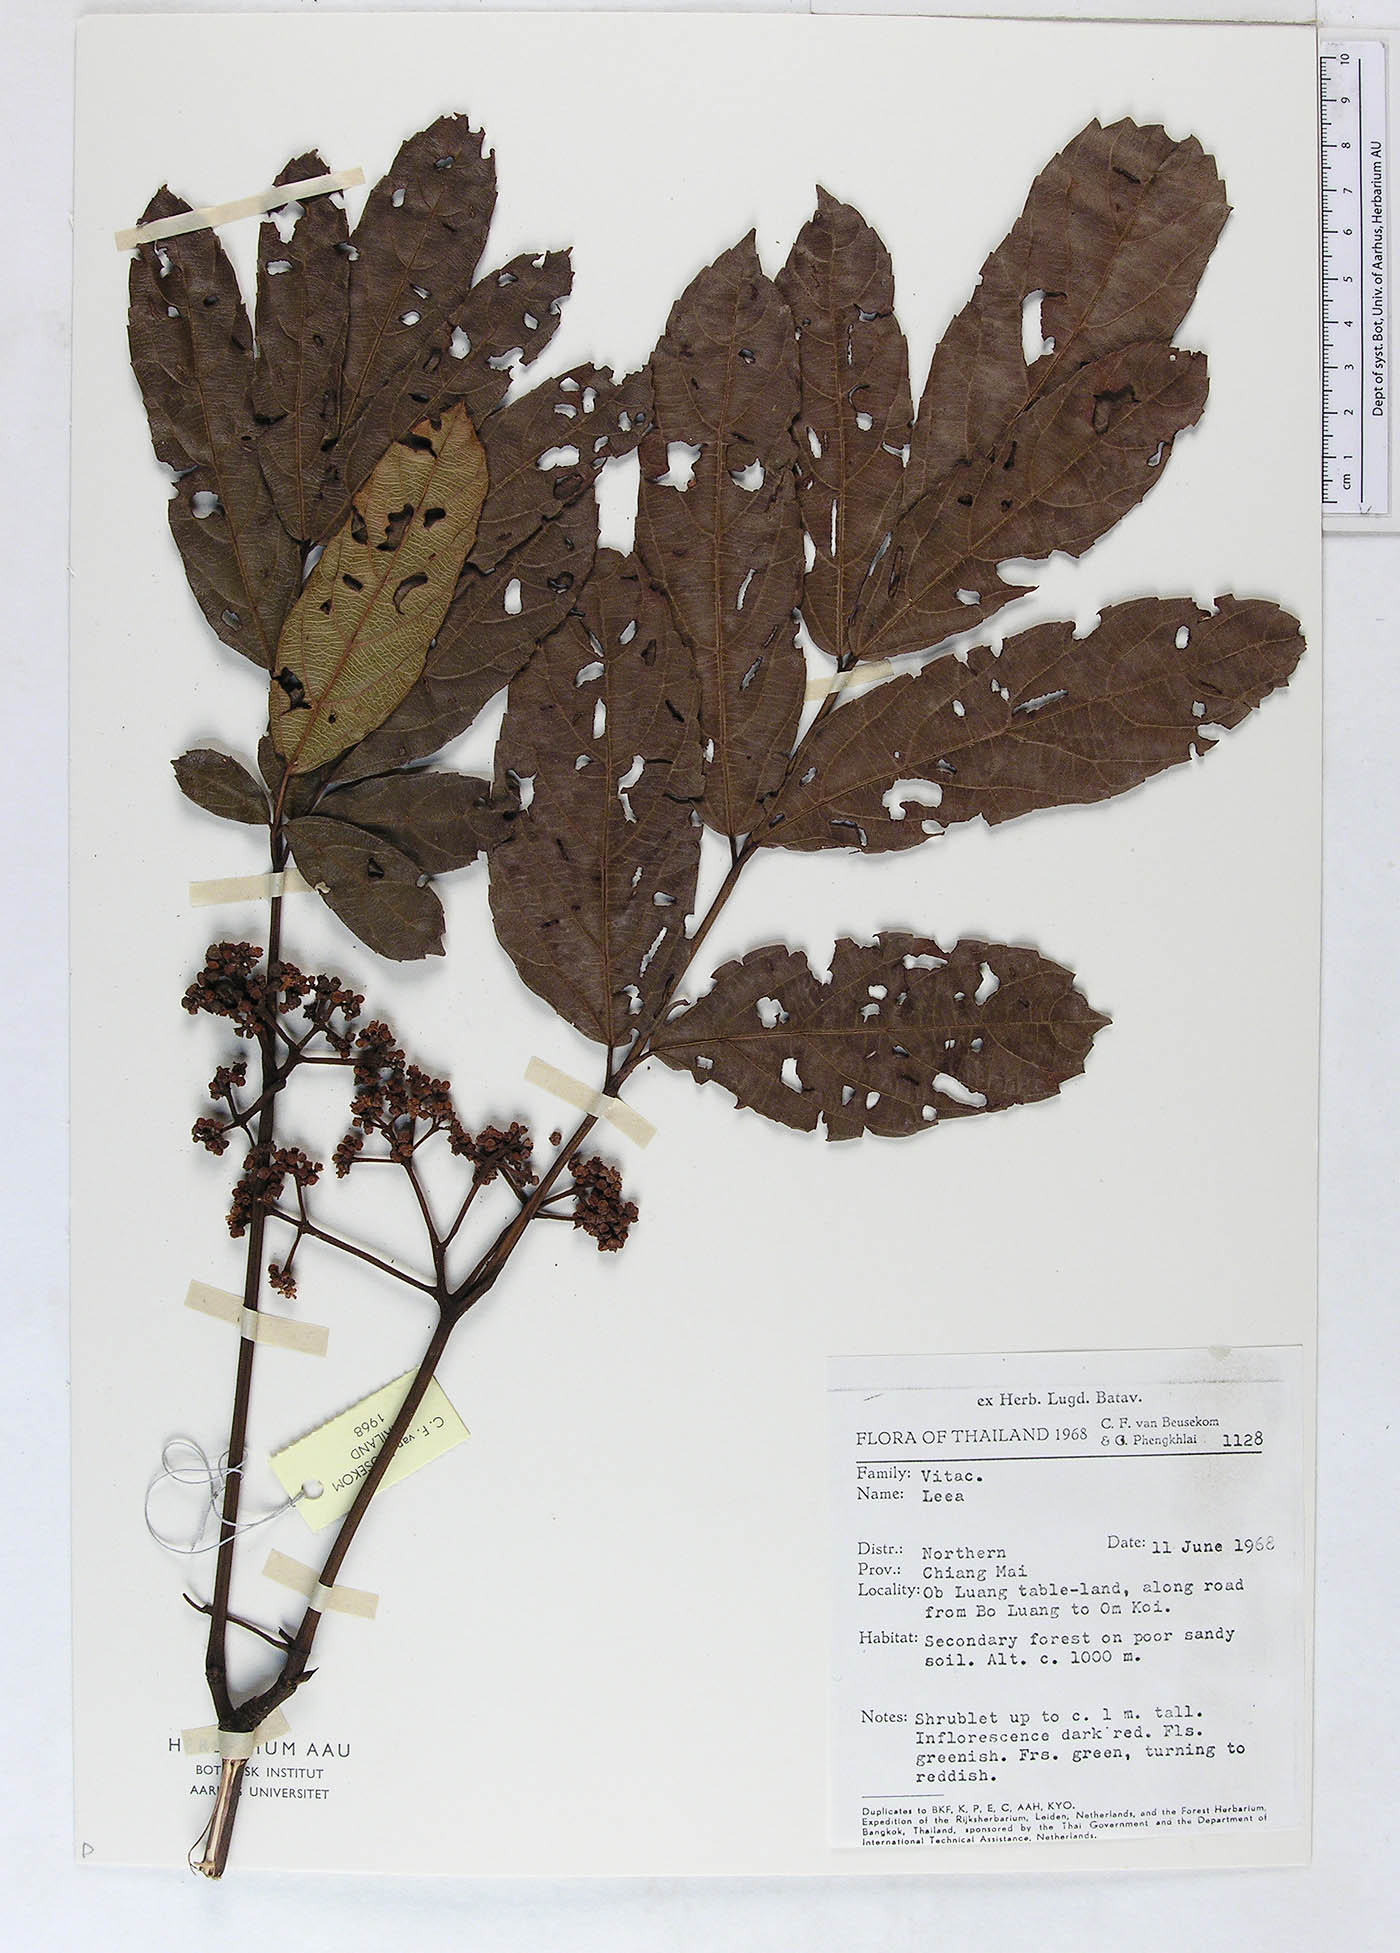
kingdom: Plantae
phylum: Tracheophyta
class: Magnoliopsida
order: Vitales
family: Vitaceae
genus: Leea
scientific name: Leea indica
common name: Bandicoot-berry
